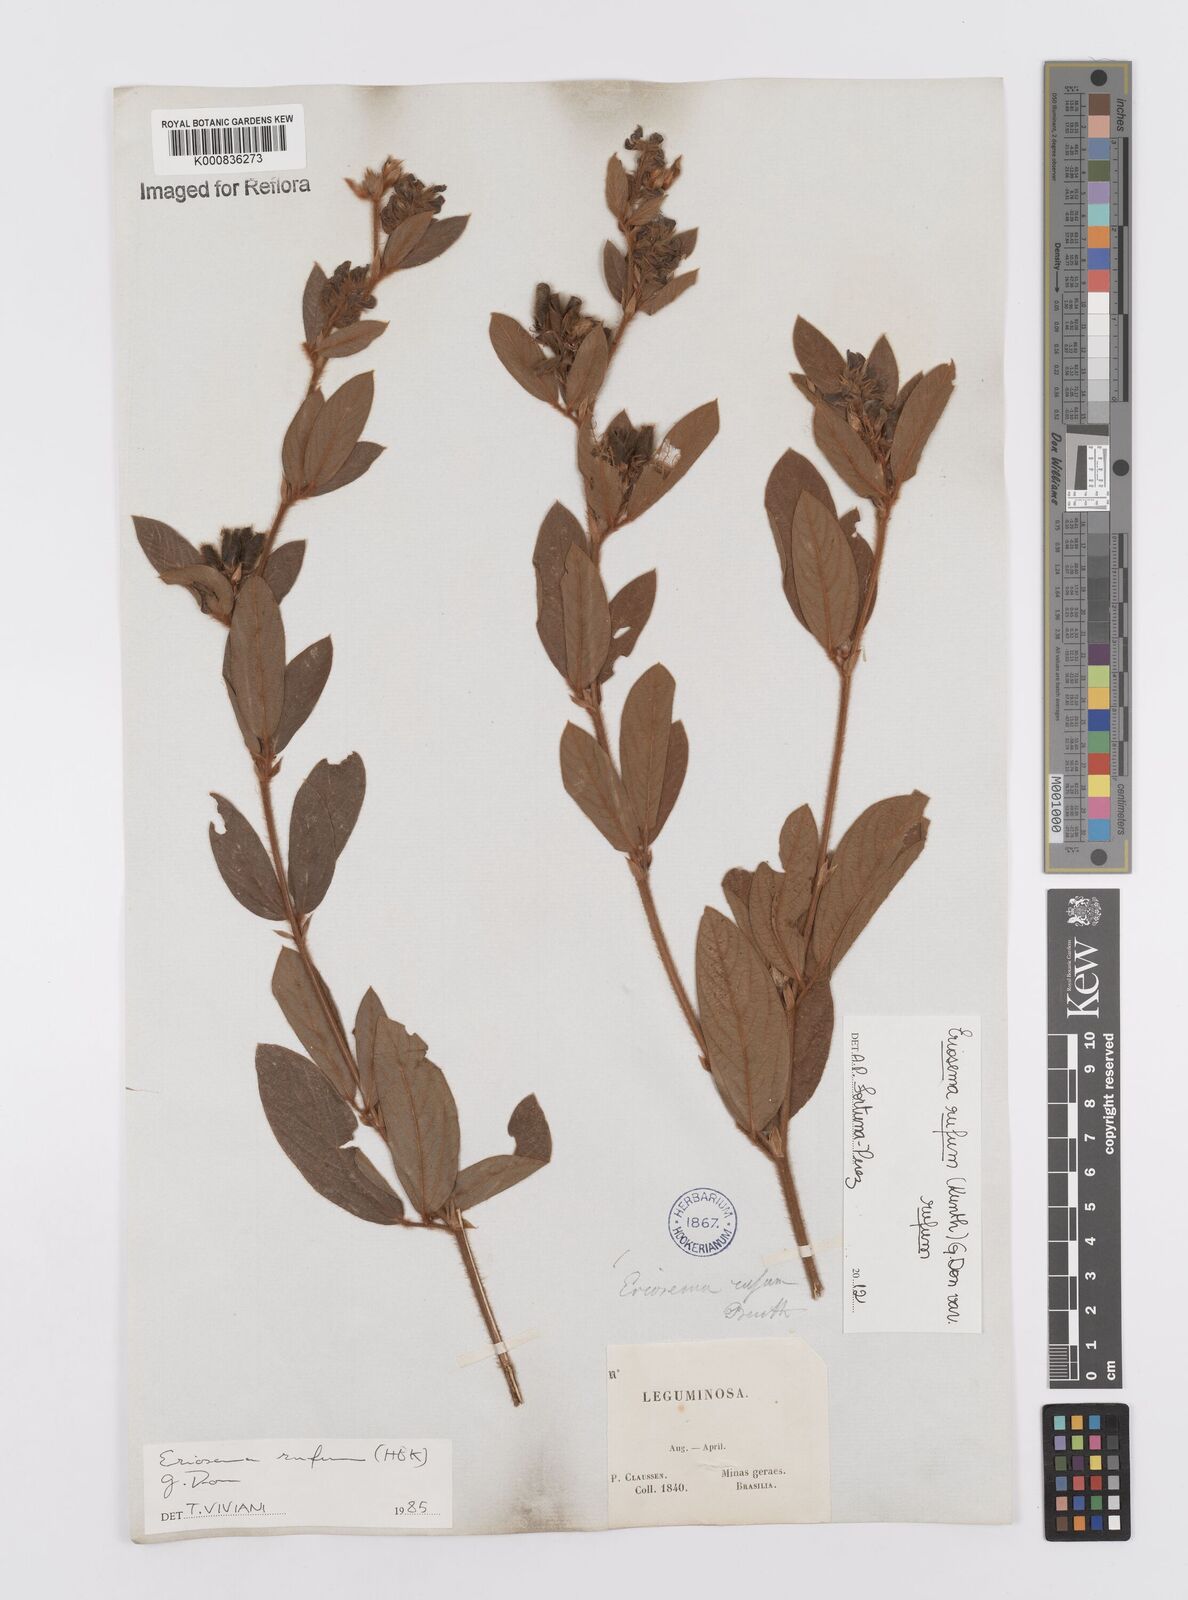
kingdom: Plantae
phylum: Tracheophyta
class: Magnoliopsida
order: Fabales
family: Fabaceae
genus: Eriosema
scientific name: Eriosema rufum
